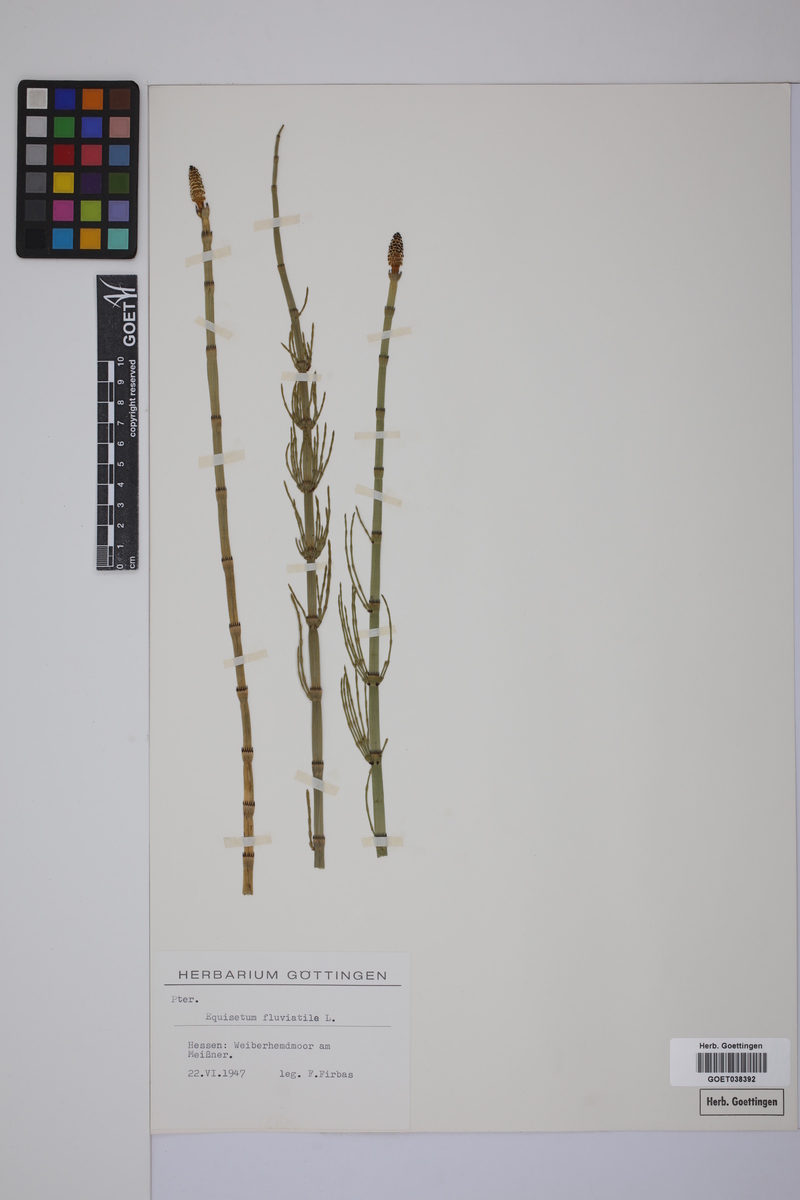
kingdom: Plantae
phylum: Tracheophyta
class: Polypodiopsida
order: Equisetales
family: Equisetaceae
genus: Equisetum
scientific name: Equisetum fluviatile
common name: Water horsetail
